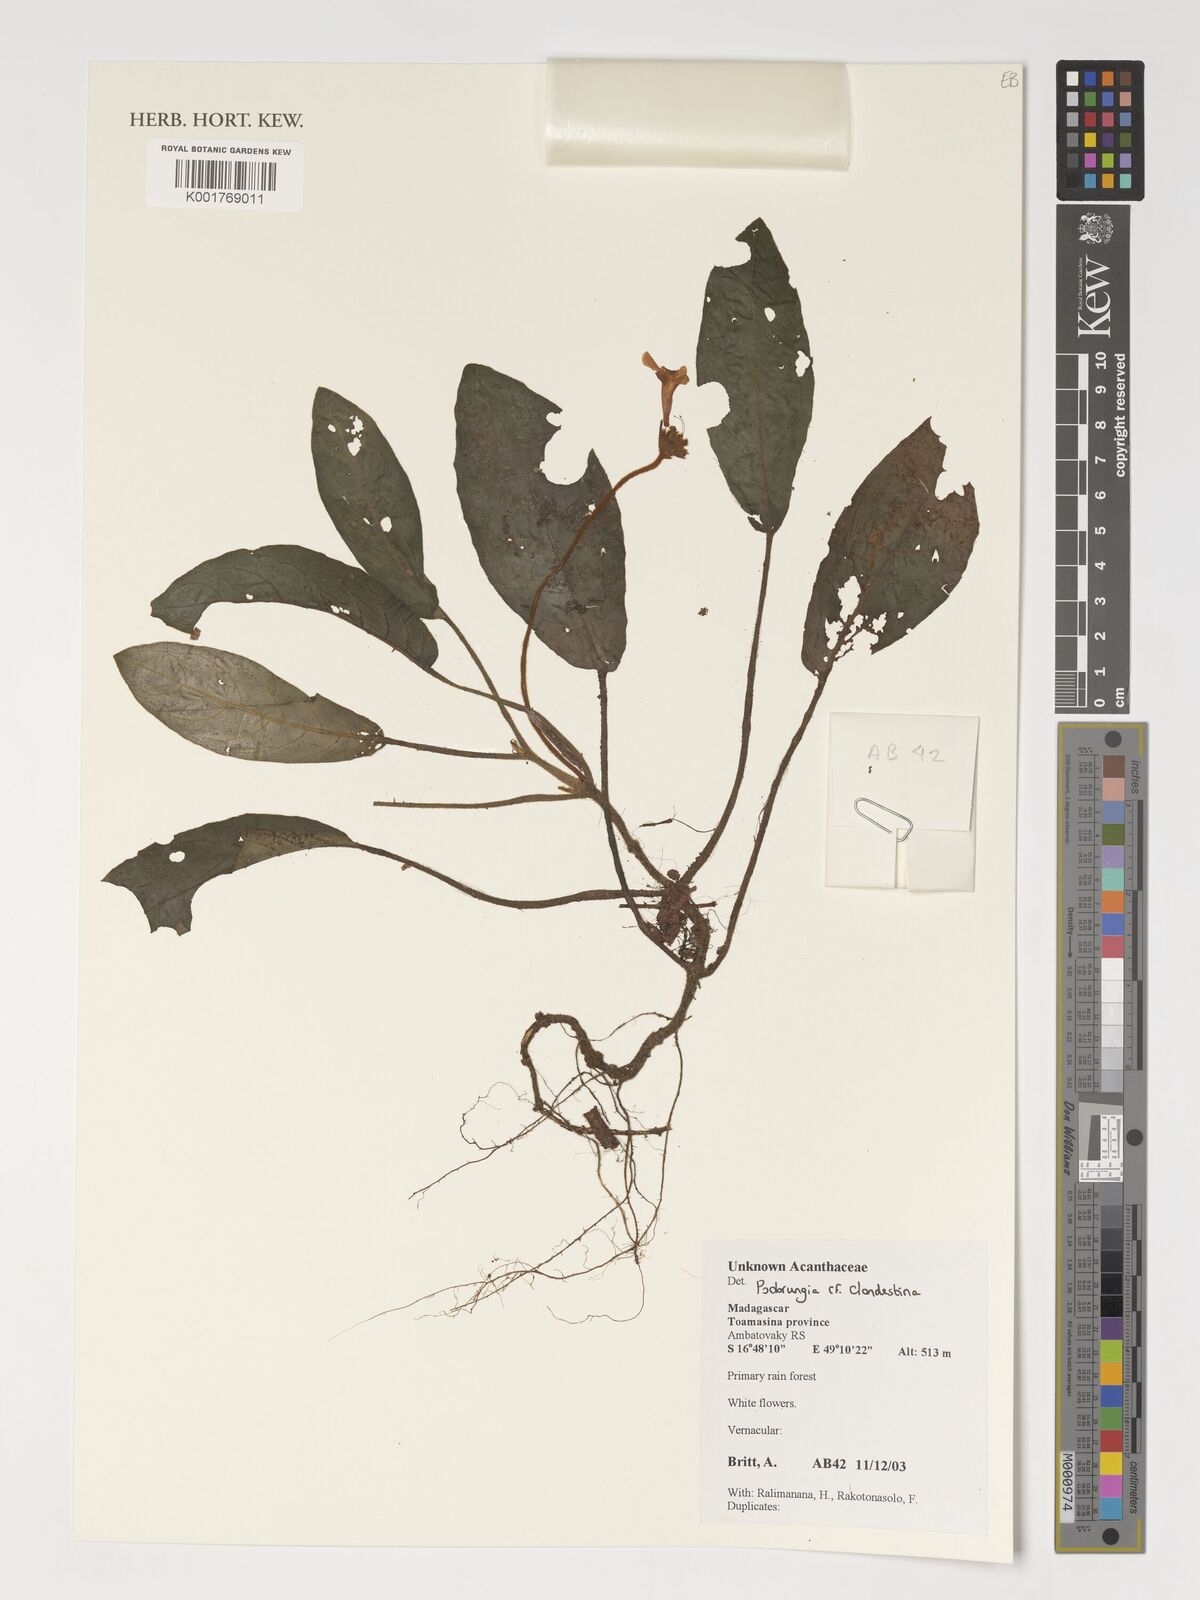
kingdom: Plantae
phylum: Tracheophyta
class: Magnoliopsida
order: Lamiales
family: Acanthaceae
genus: Podorungia
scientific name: Podorungia clandestina
